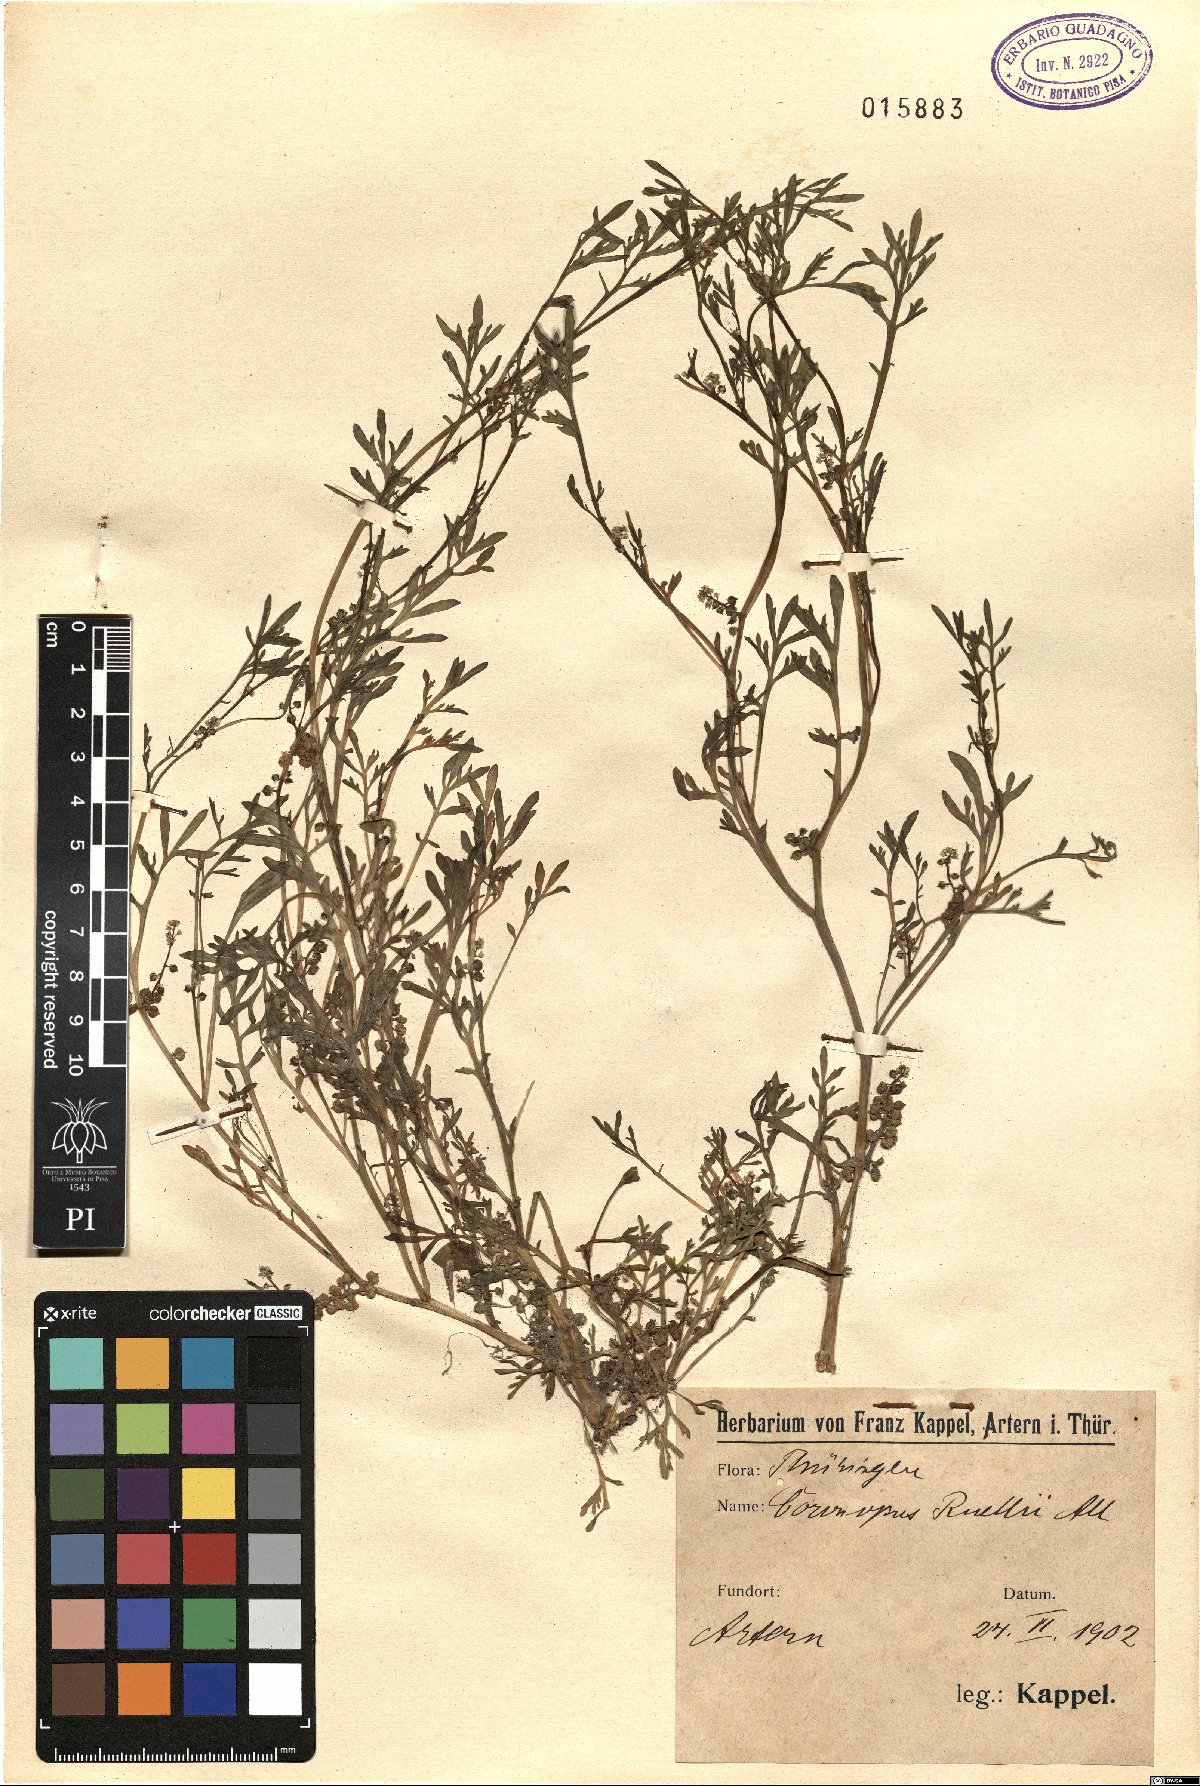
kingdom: Plantae
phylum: Tracheophyta
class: Magnoliopsida
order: Brassicales
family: Brassicaceae
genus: Lepidium
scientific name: Lepidium coronopus
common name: Greater swinecress
